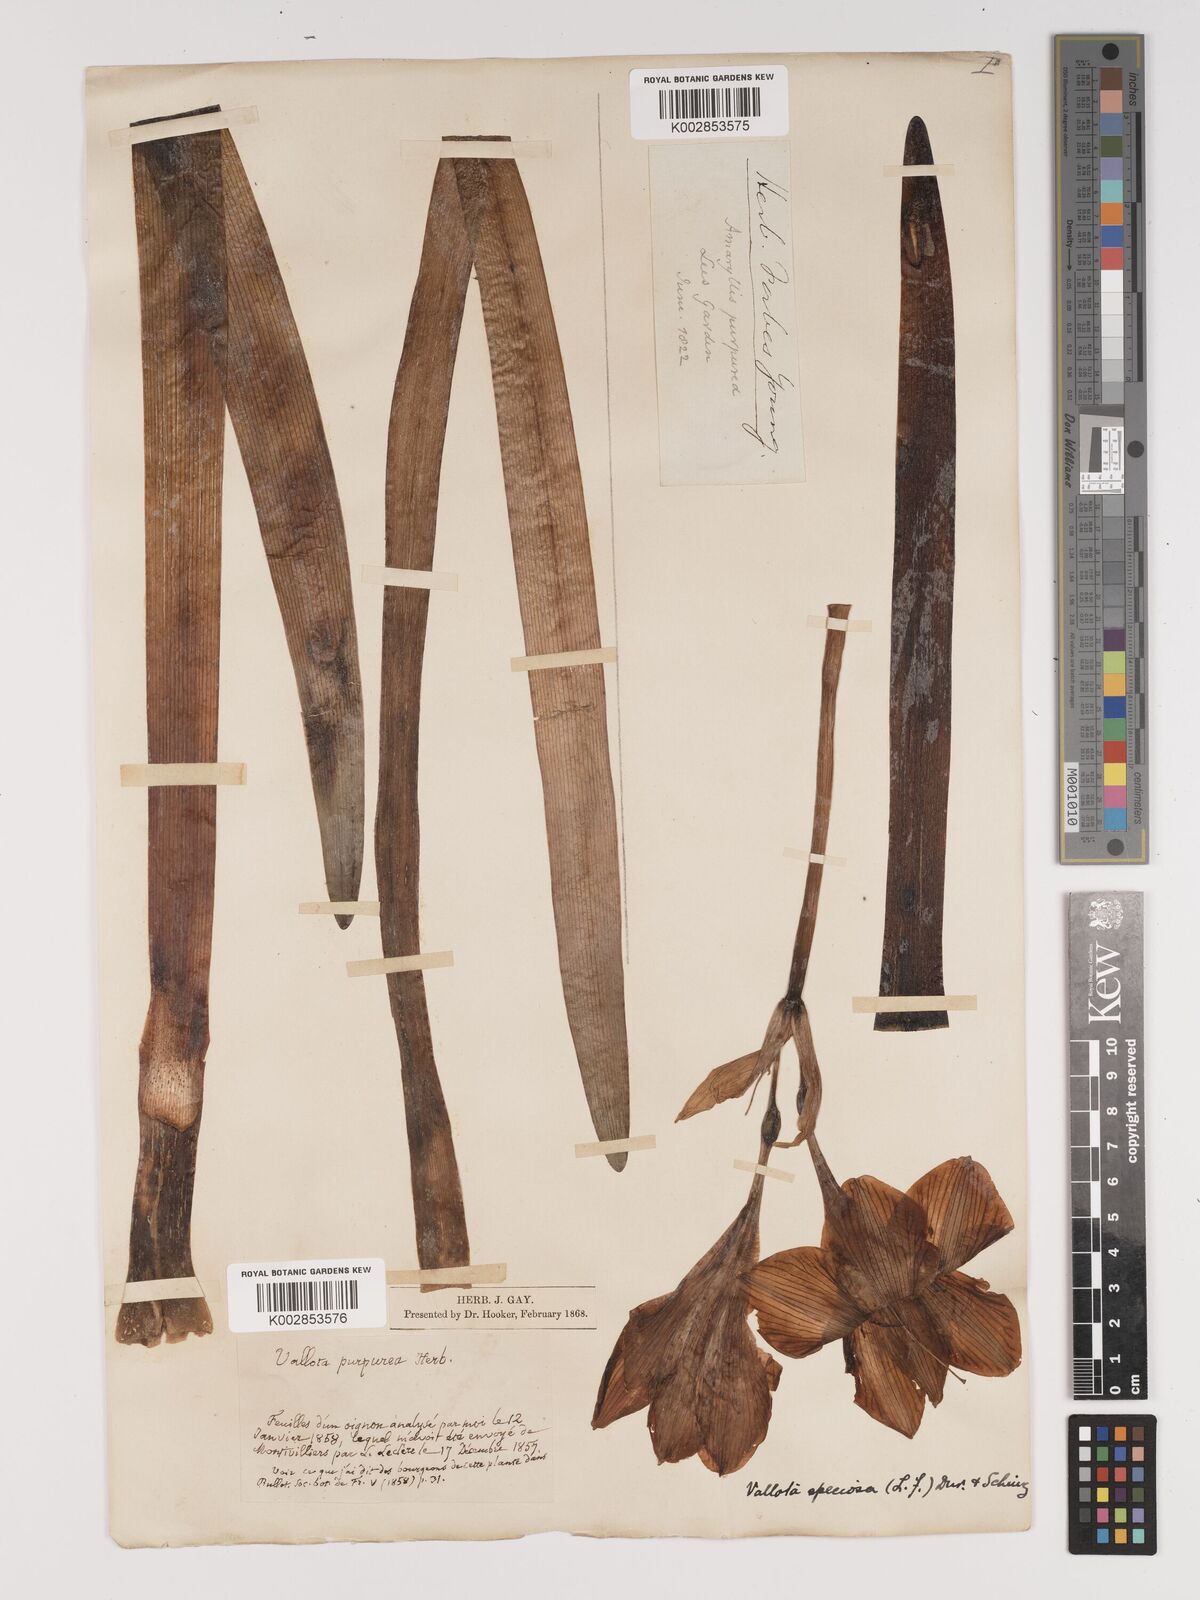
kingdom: Plantae
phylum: Tracheophyta
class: Liliopsida
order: Asparagales
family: Amaryllidaceae
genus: Cyrtanthus
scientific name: Cyrtanthus elatus
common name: Scarborough-lily
